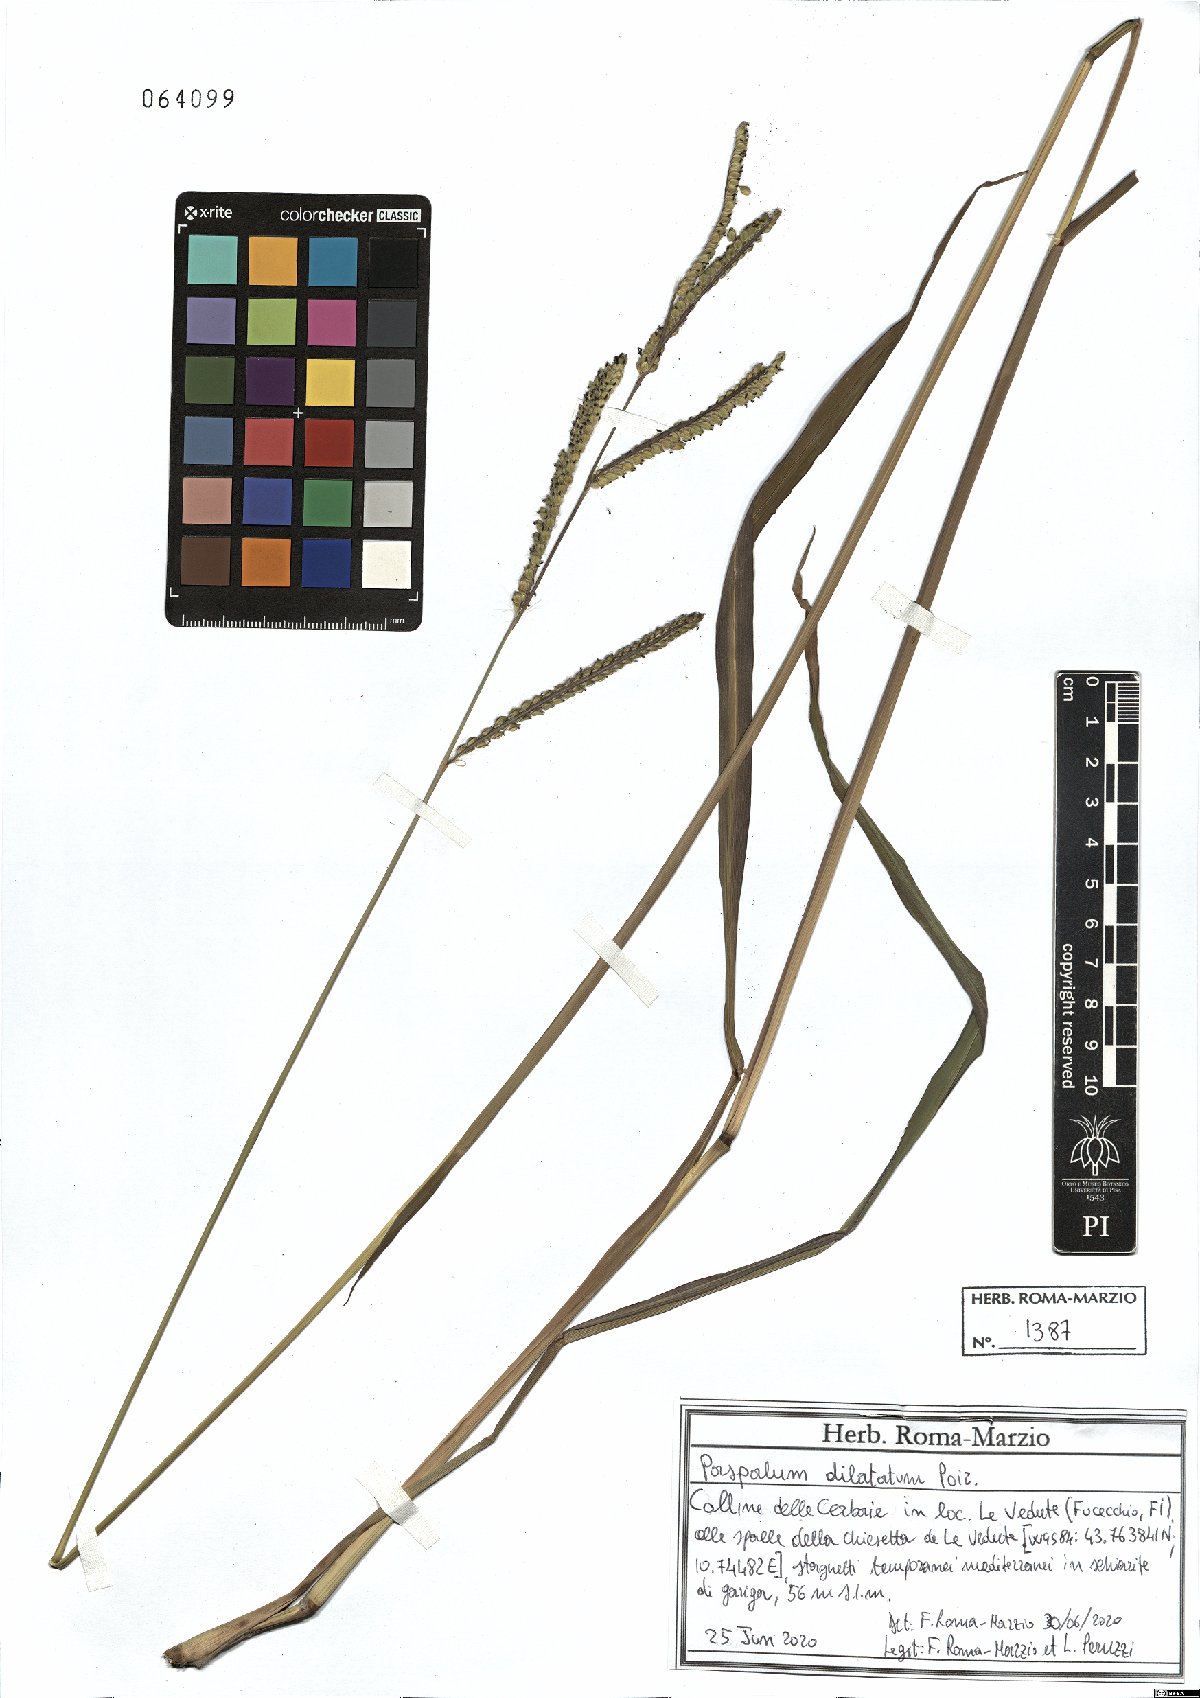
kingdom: Plantae
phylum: Tracheophyta
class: Liliopsida
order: Poales
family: Poaceae
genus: Paspalum
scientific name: Paspalum dilatatum
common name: Dallisgrass
